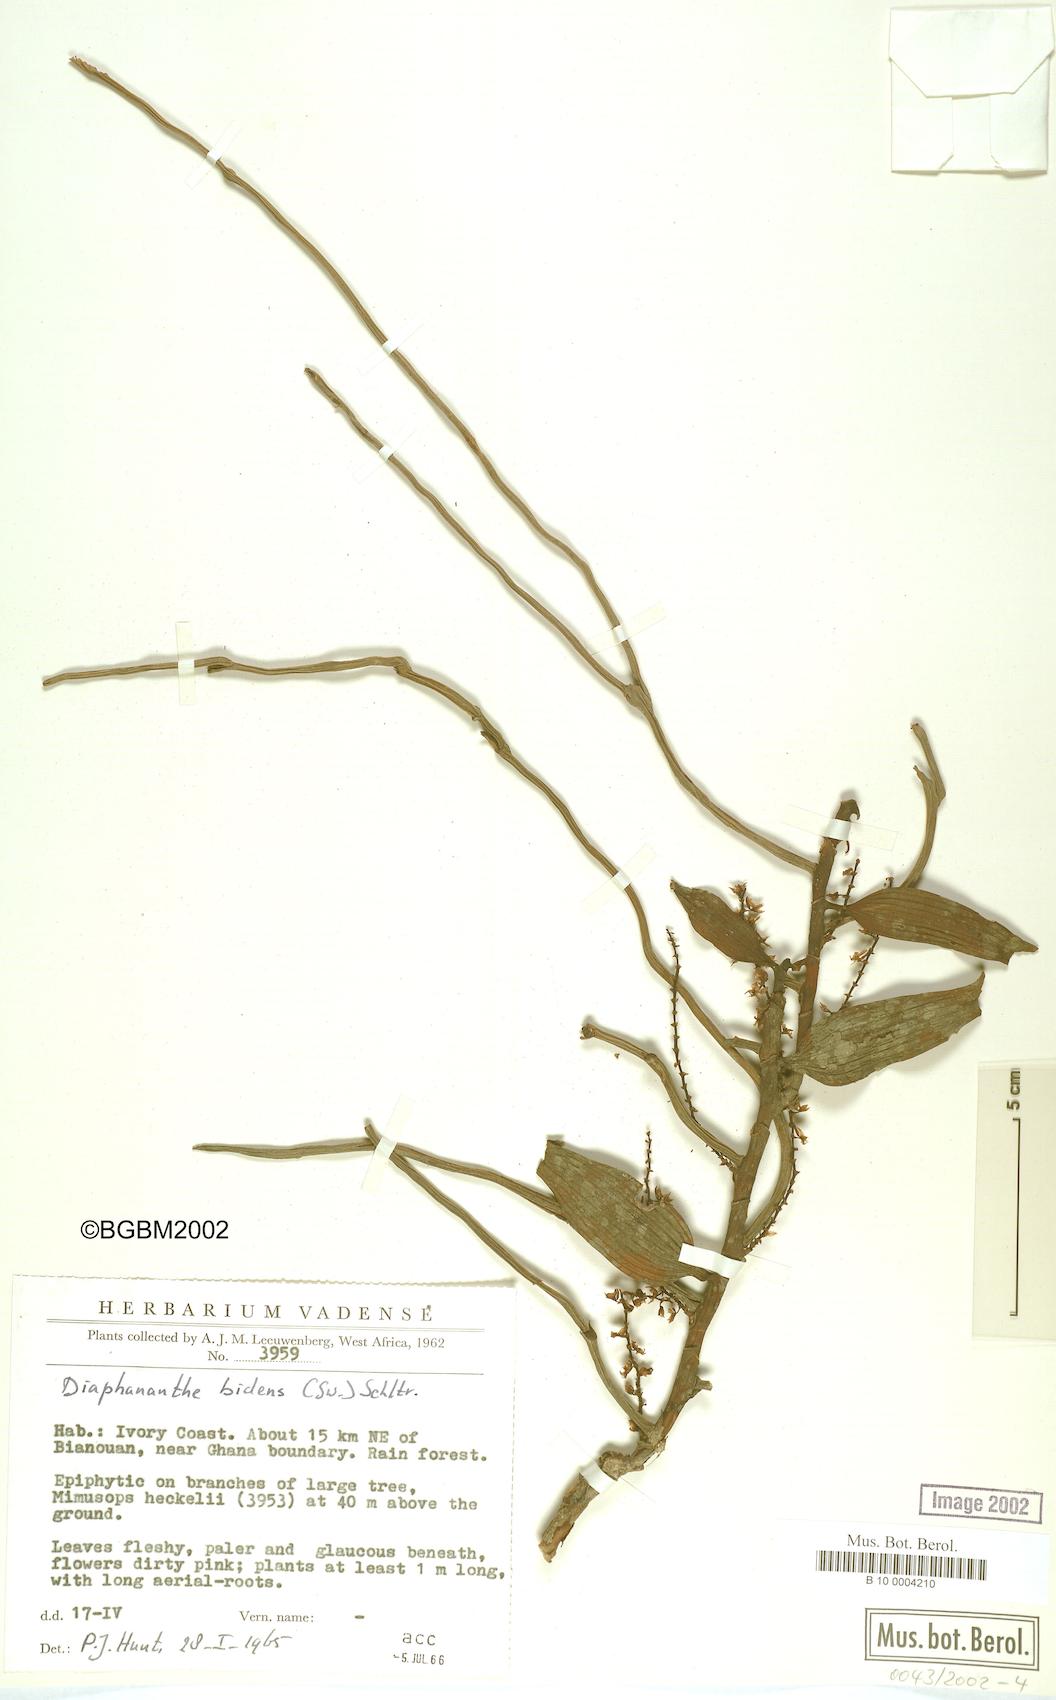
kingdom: Plantae
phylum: Tracheophyta
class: Liliopsida
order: Asparagales
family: Orchidaceae
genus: Diaphananthe
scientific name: Diaphananthe bidens
